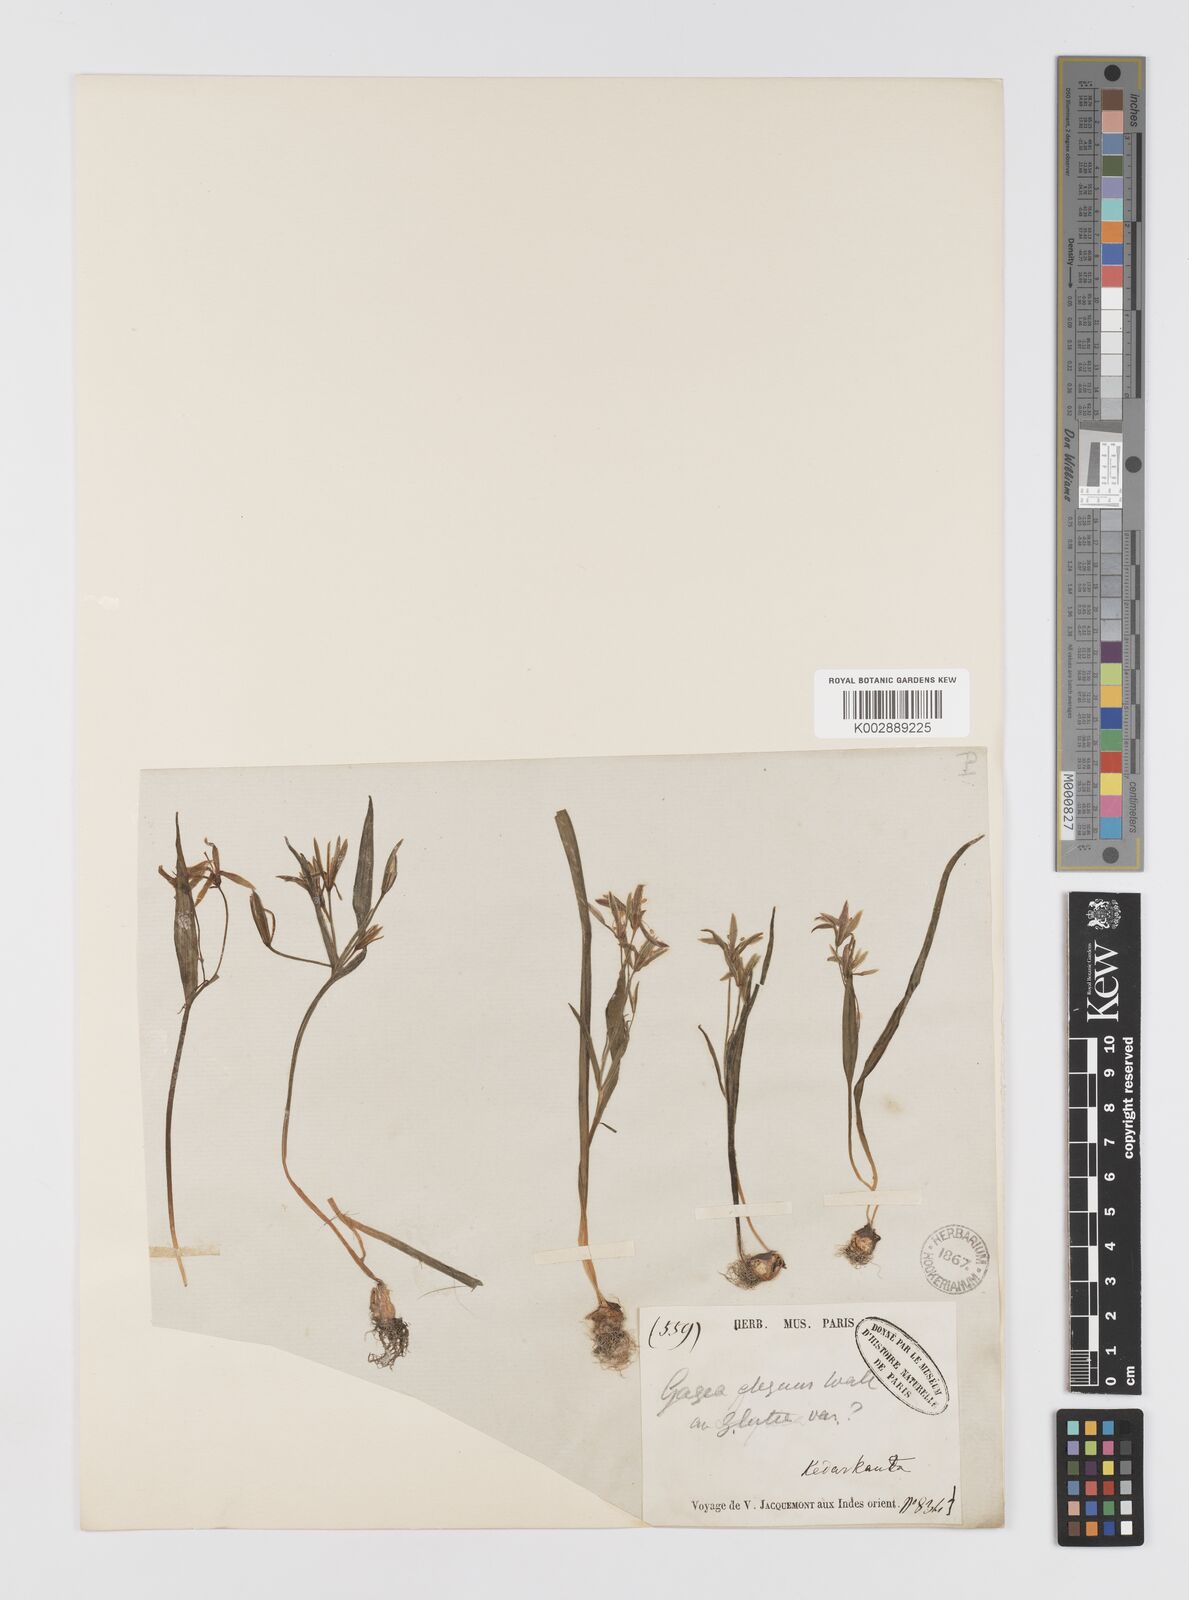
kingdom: Plantae
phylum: Tracheophyta
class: Liliopsida
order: Liliales
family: Liliaceae
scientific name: Liliaceae
